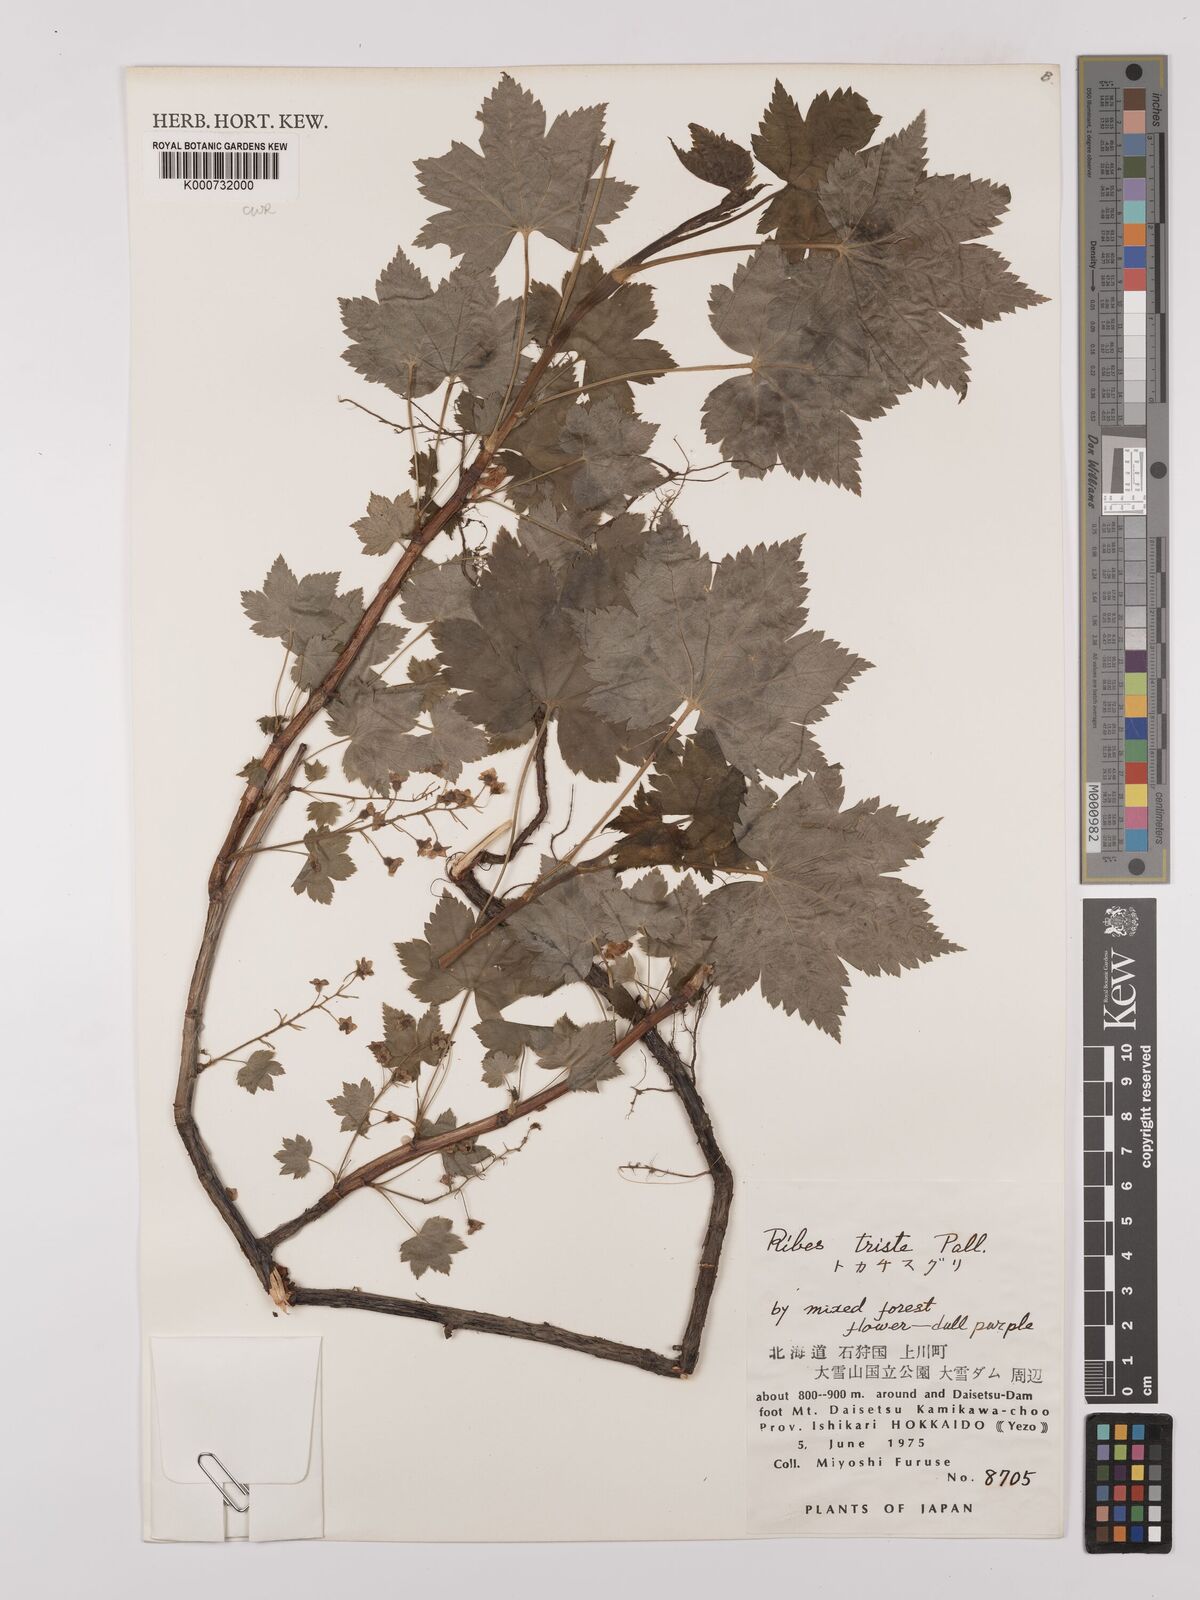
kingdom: Plantae
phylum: Tracheophyta
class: Magnoliopsida
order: Saxifragales
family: Grossulariaceae
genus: Ribes
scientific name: Ribes triste
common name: Swamp red currant
